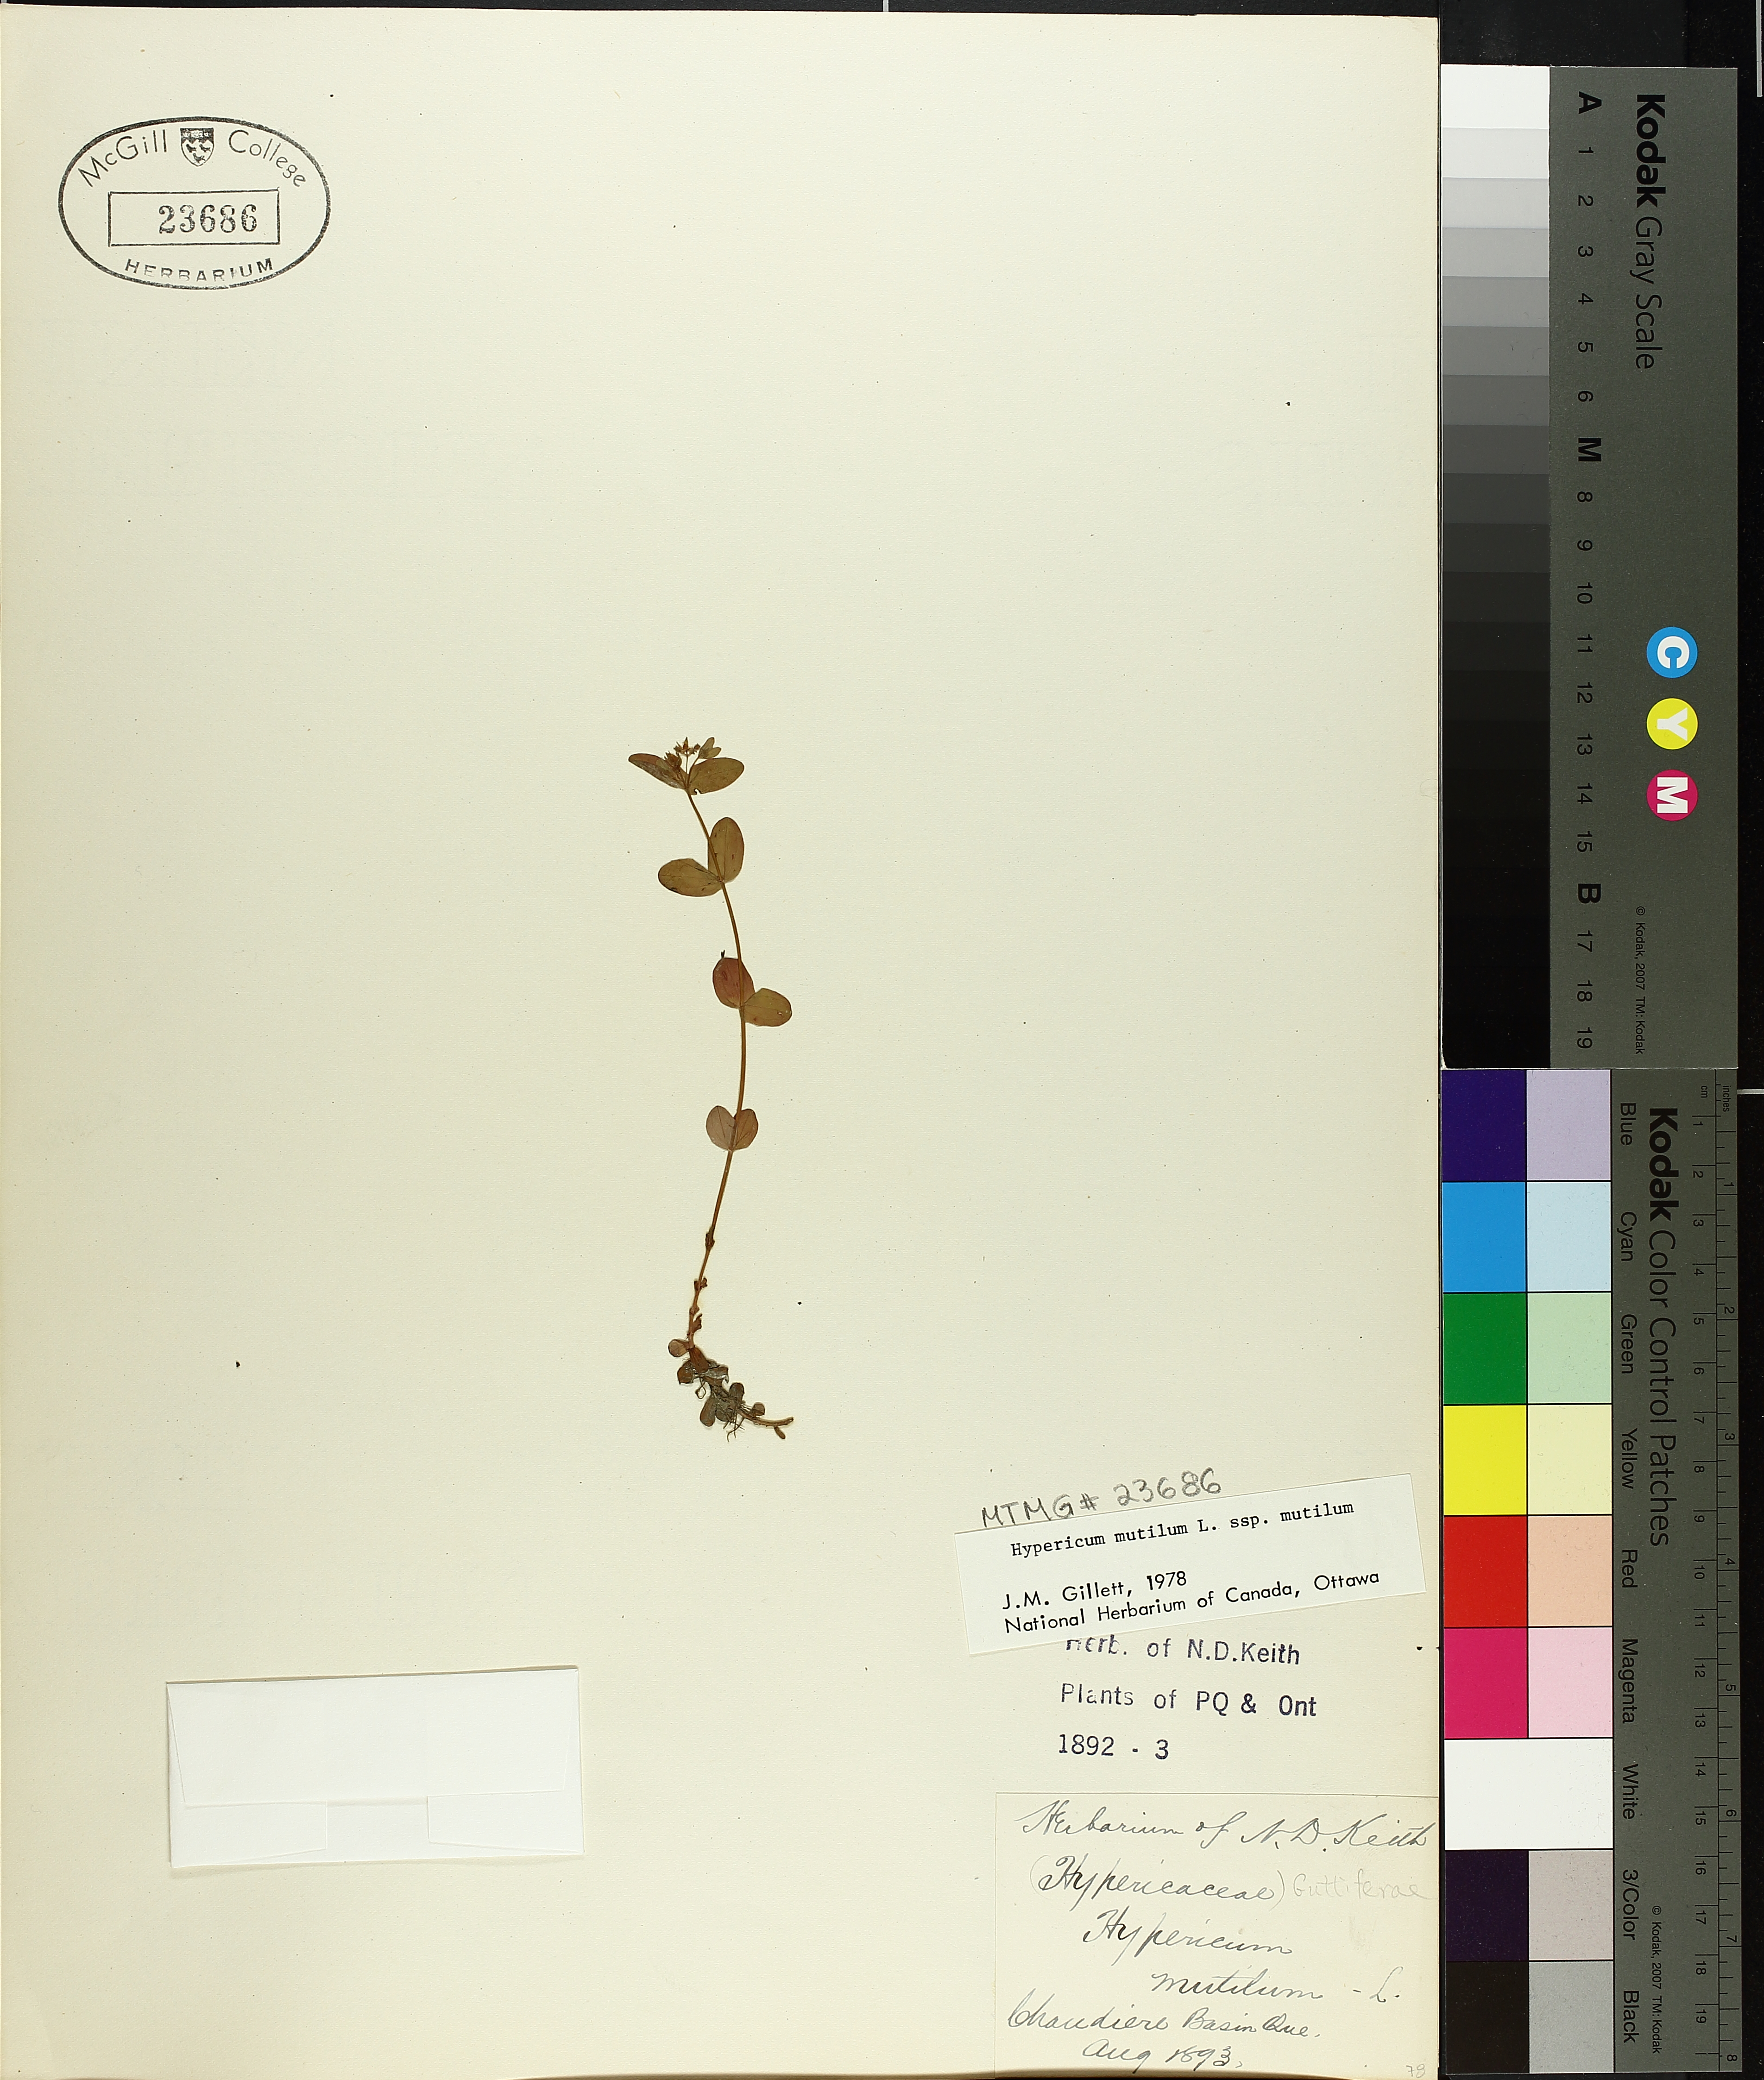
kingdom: Plantae
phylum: Tracheophyta
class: Magnoliopsida
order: Malpighiales
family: Hypericaceae
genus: Hypericum
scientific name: Hypericum mutilum
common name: Dwarf st. john's-wort
